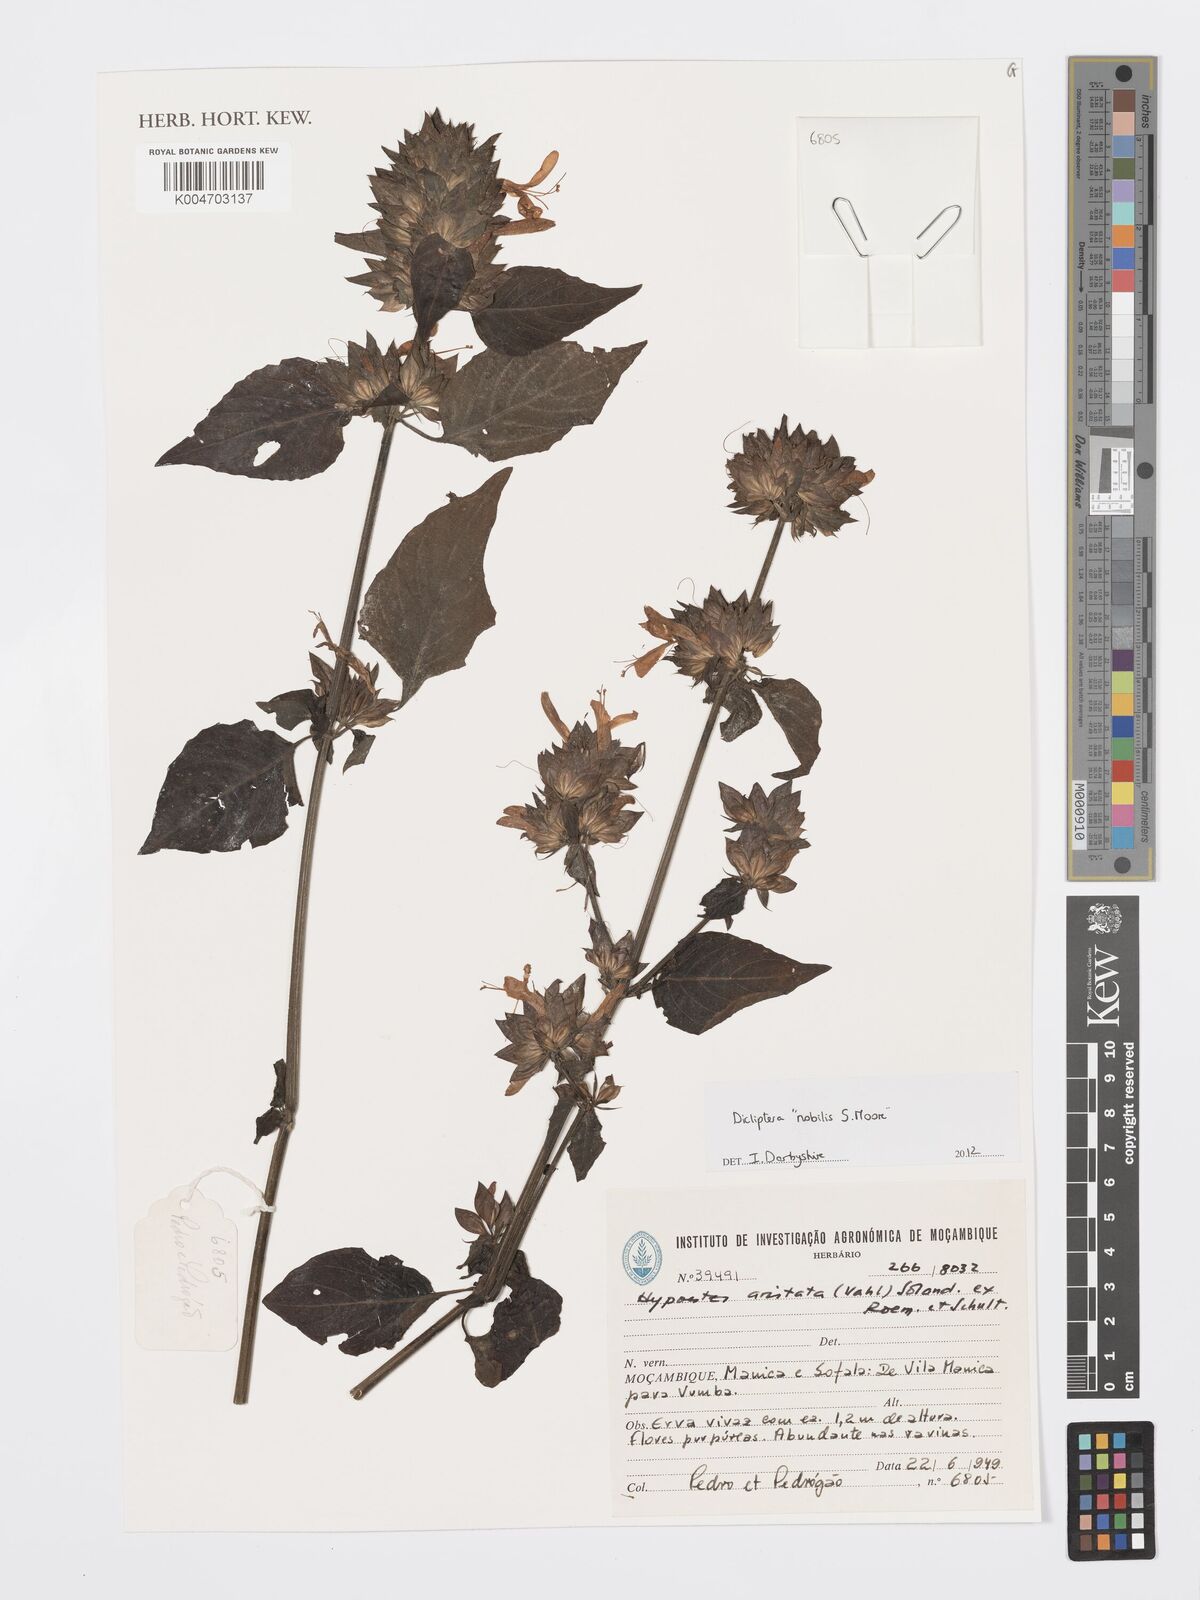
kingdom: Plantae
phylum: Tracheophyta
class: Magnoliopsida
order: Lamiales
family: Acanthaceae
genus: Dicliptera
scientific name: Dicliptera clinopodia
